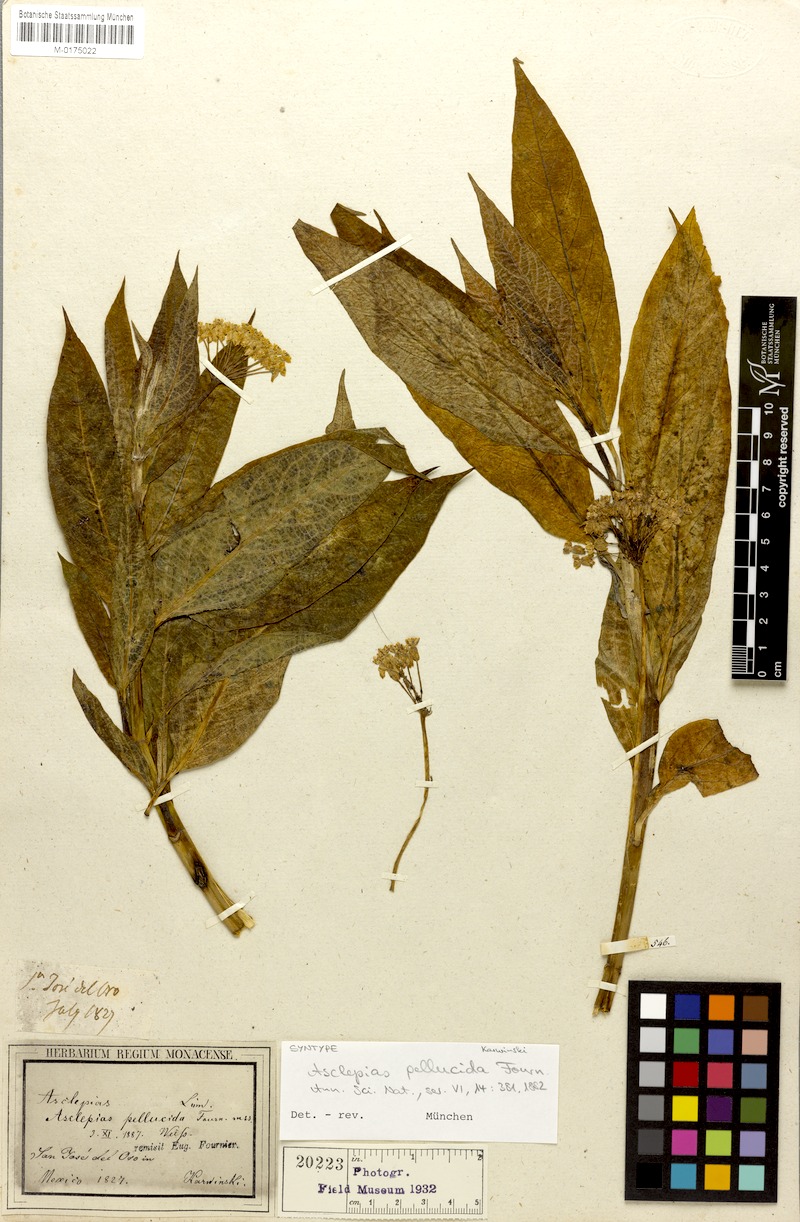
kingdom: Plantae
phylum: Tracheophyta
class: Magnoliopsida
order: Gentianales
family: Apocynaceae
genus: Asclepias
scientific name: Asclepias pellucida
